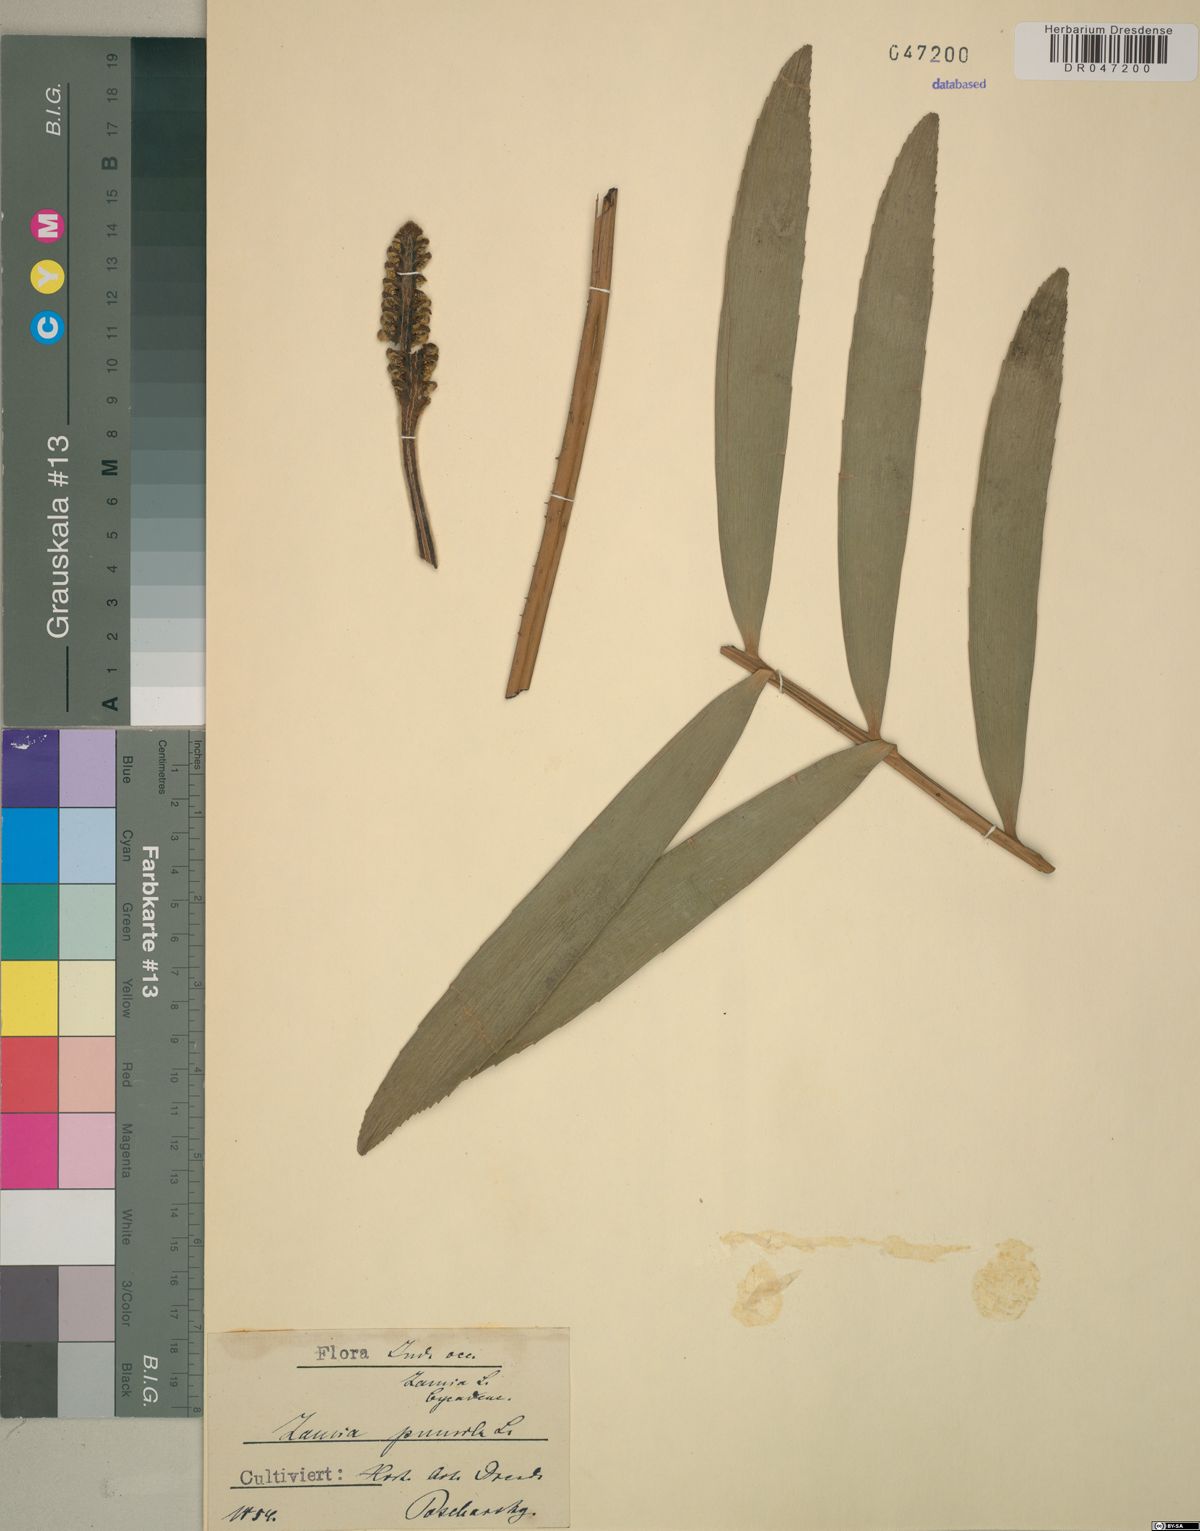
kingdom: Plantae
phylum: Tracheophyta
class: Cycadopsida
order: Cycadales
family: Zamiaceae
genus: Zamia
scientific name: Zamia pumila
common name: Florida arrowroot
